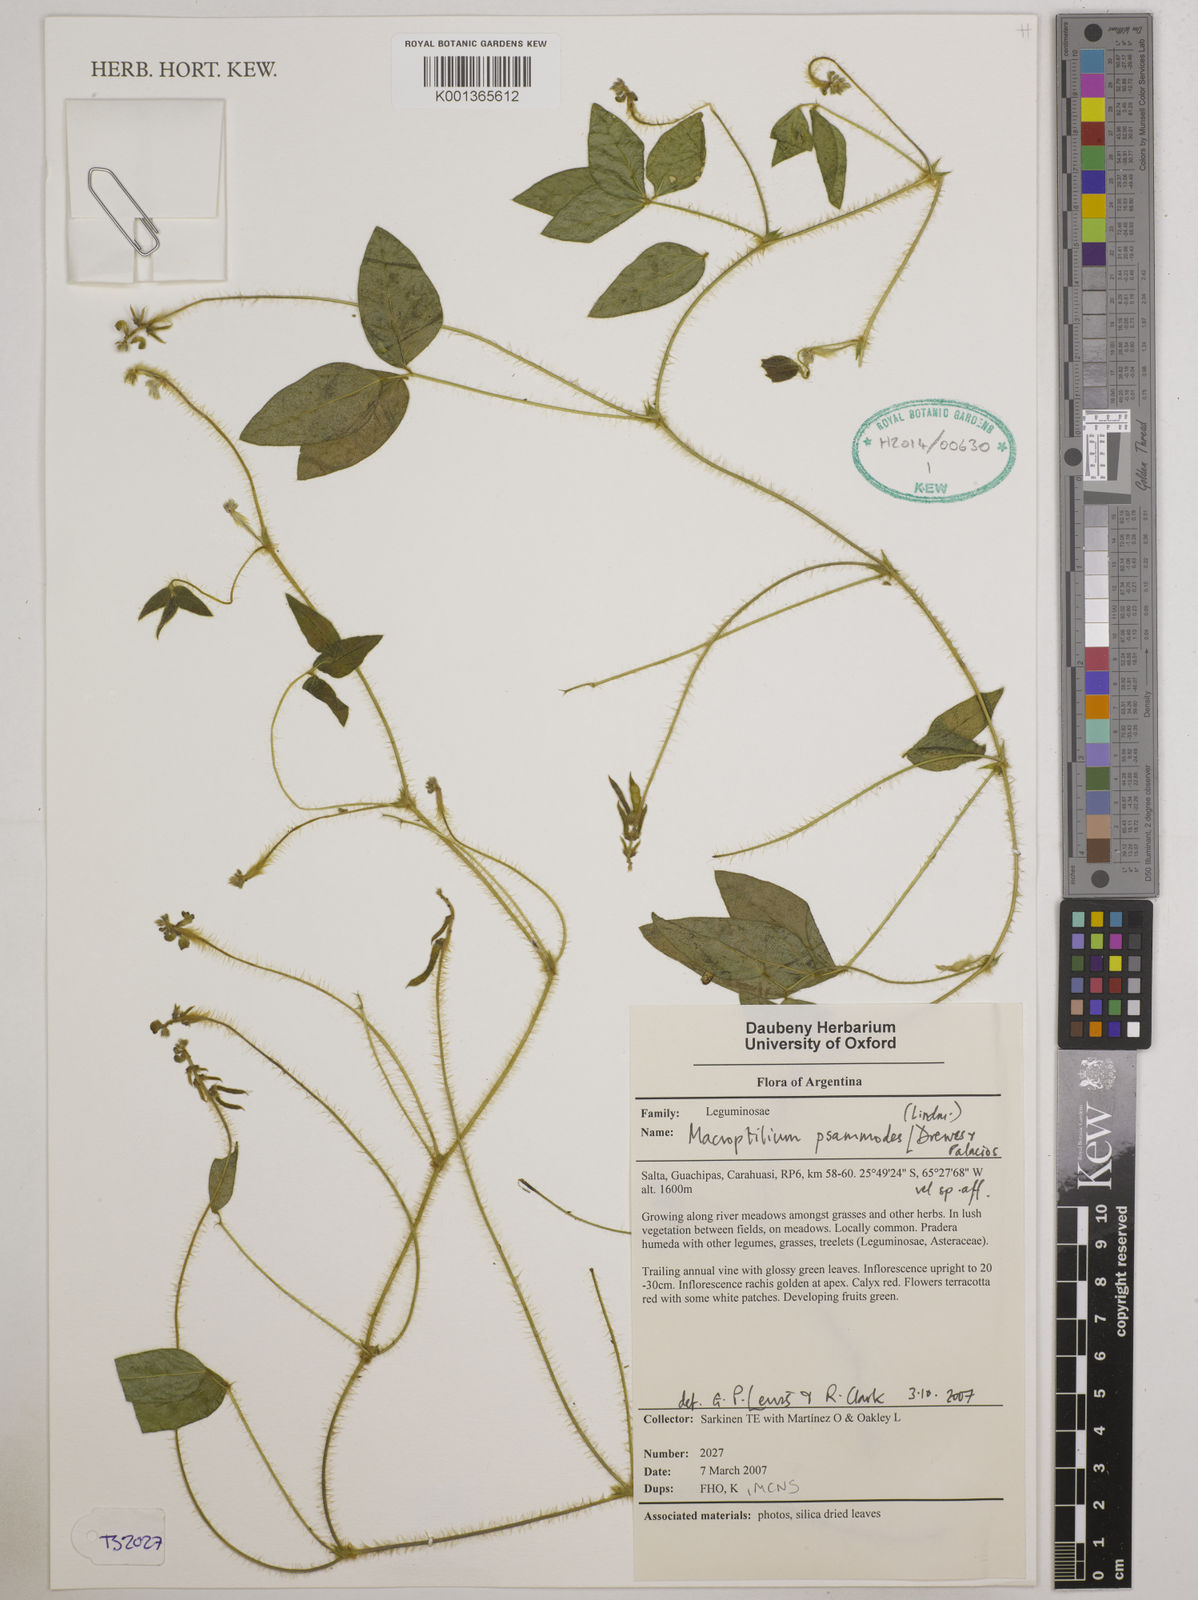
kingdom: Plantae
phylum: Tracheophyta
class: Magnoliopsida
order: Fabales
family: Fabaceae
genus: Macroptilium
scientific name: Macroptilium psammodes
